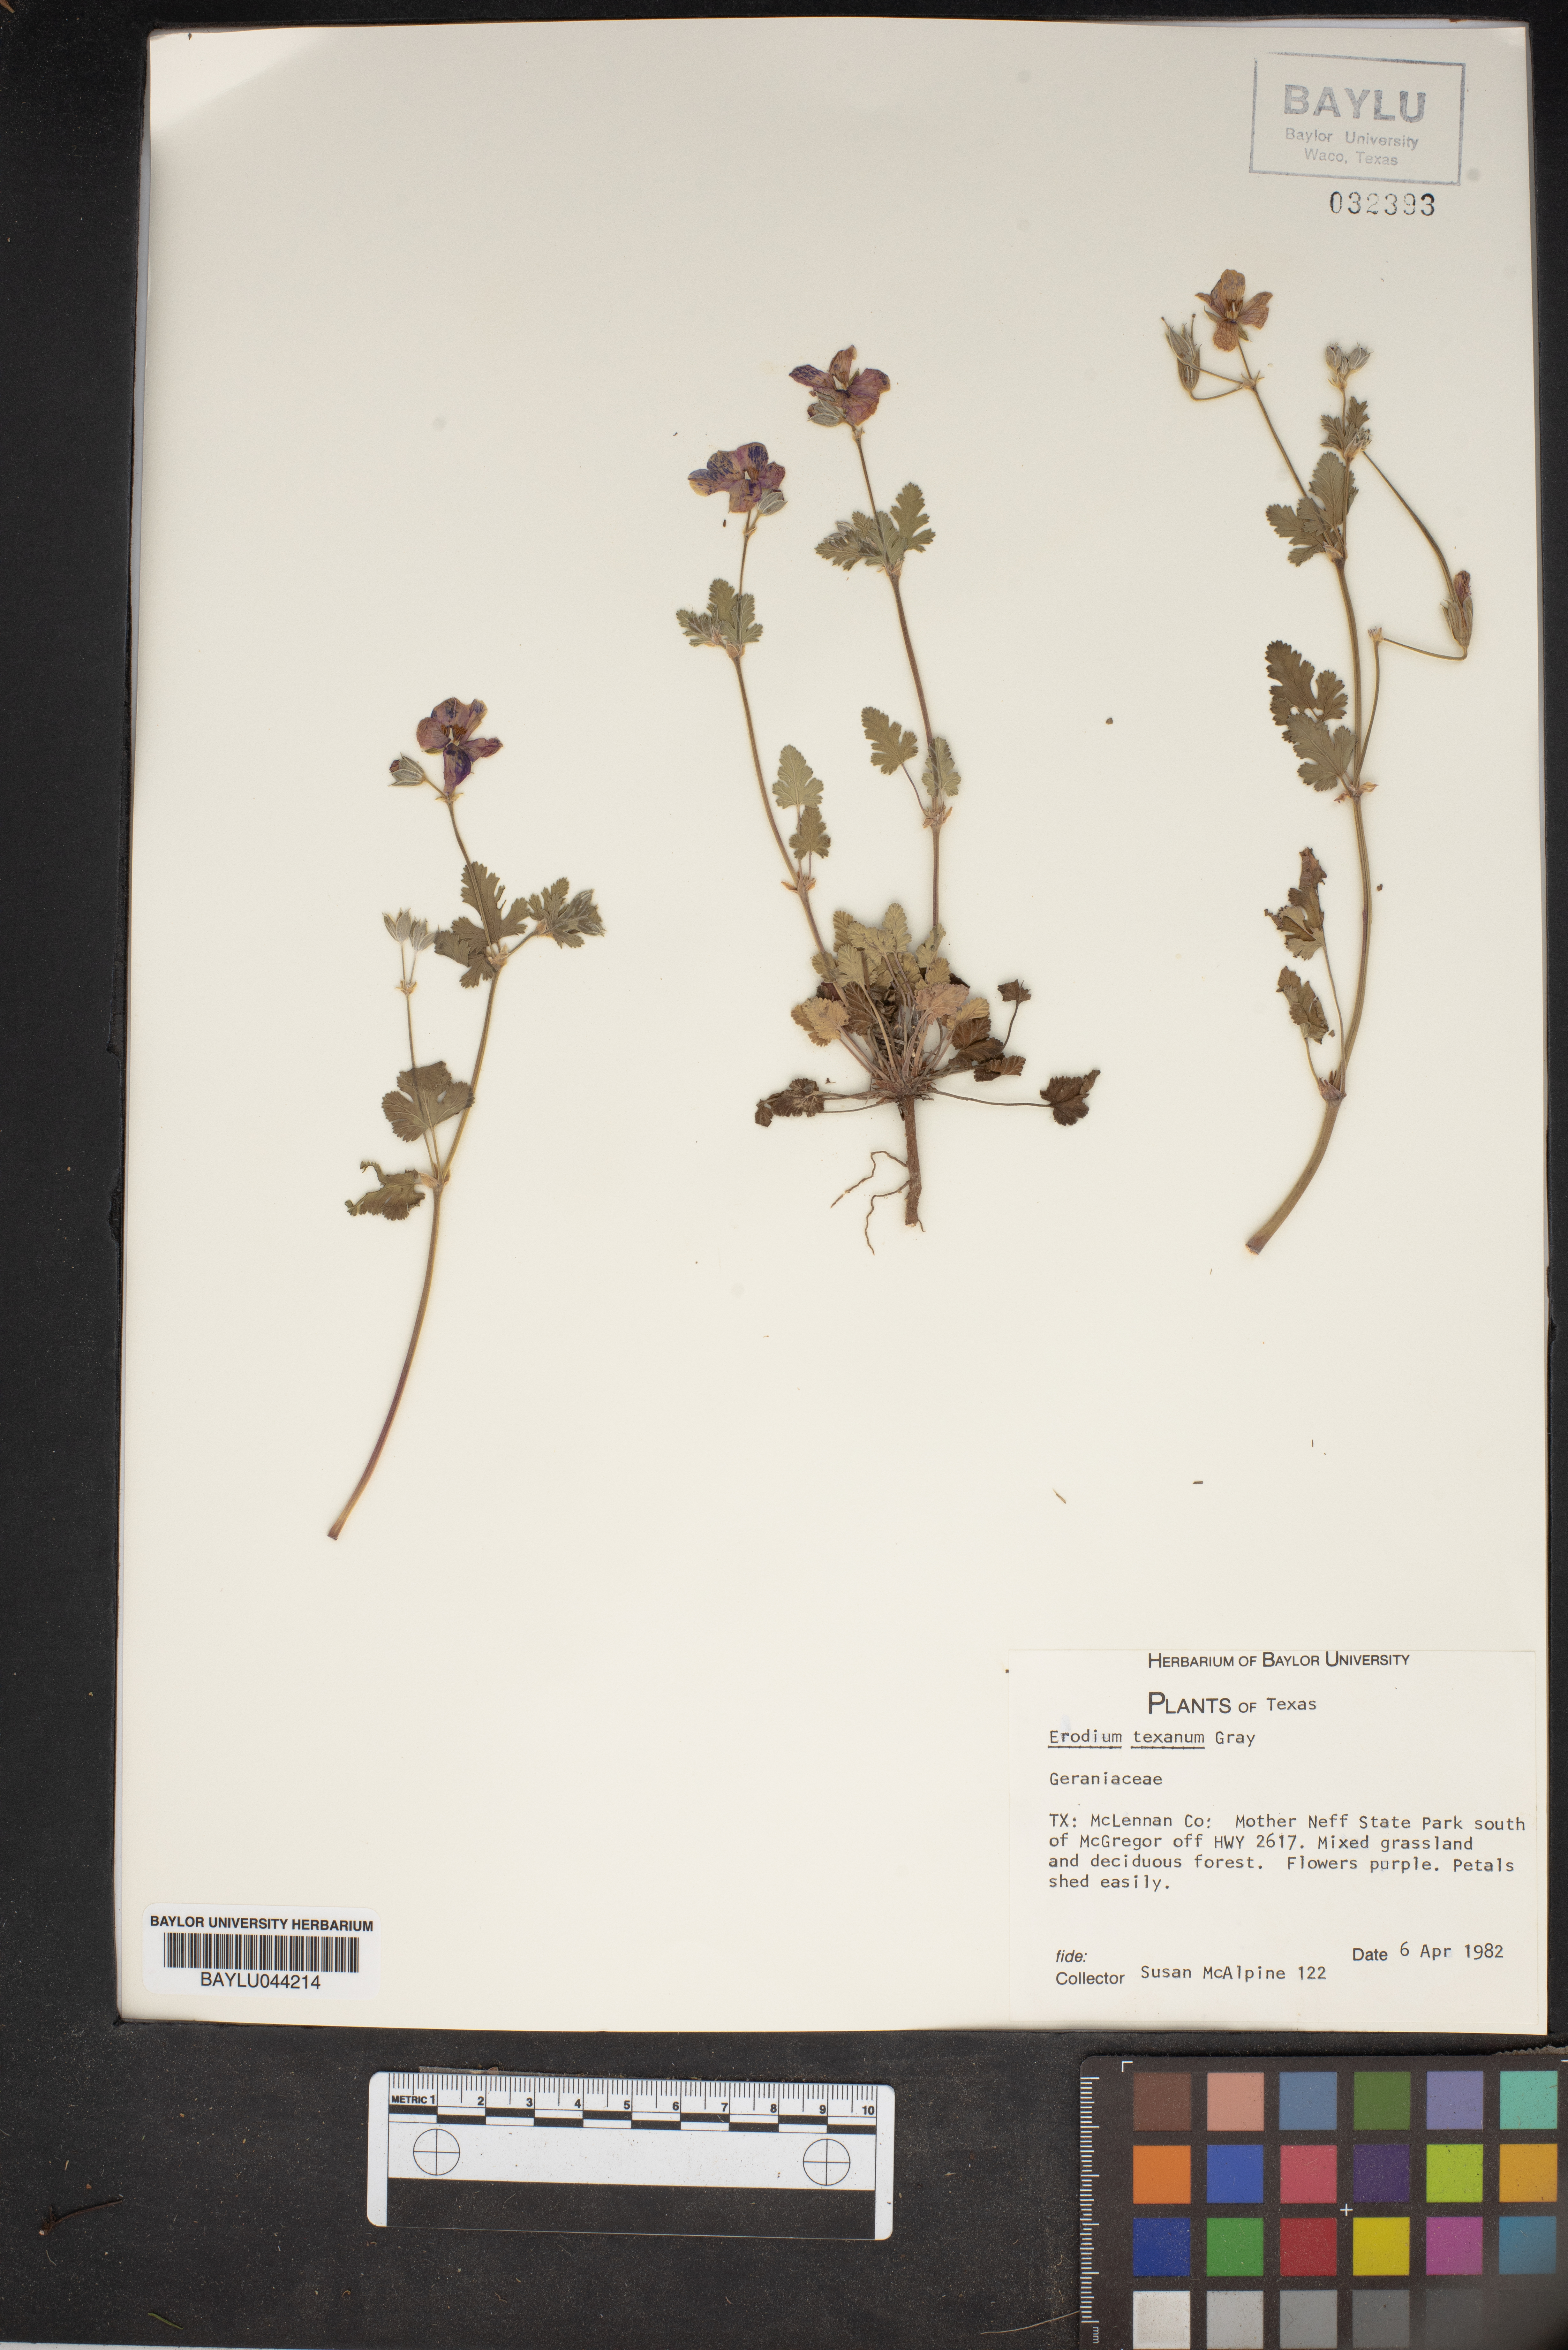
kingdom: Plantae
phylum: Tracheophyta
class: Magnoliopsida
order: Geraniales
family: Geraniaceae
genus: Erodium
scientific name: Erodium texanum
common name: Texas stork's-bill
